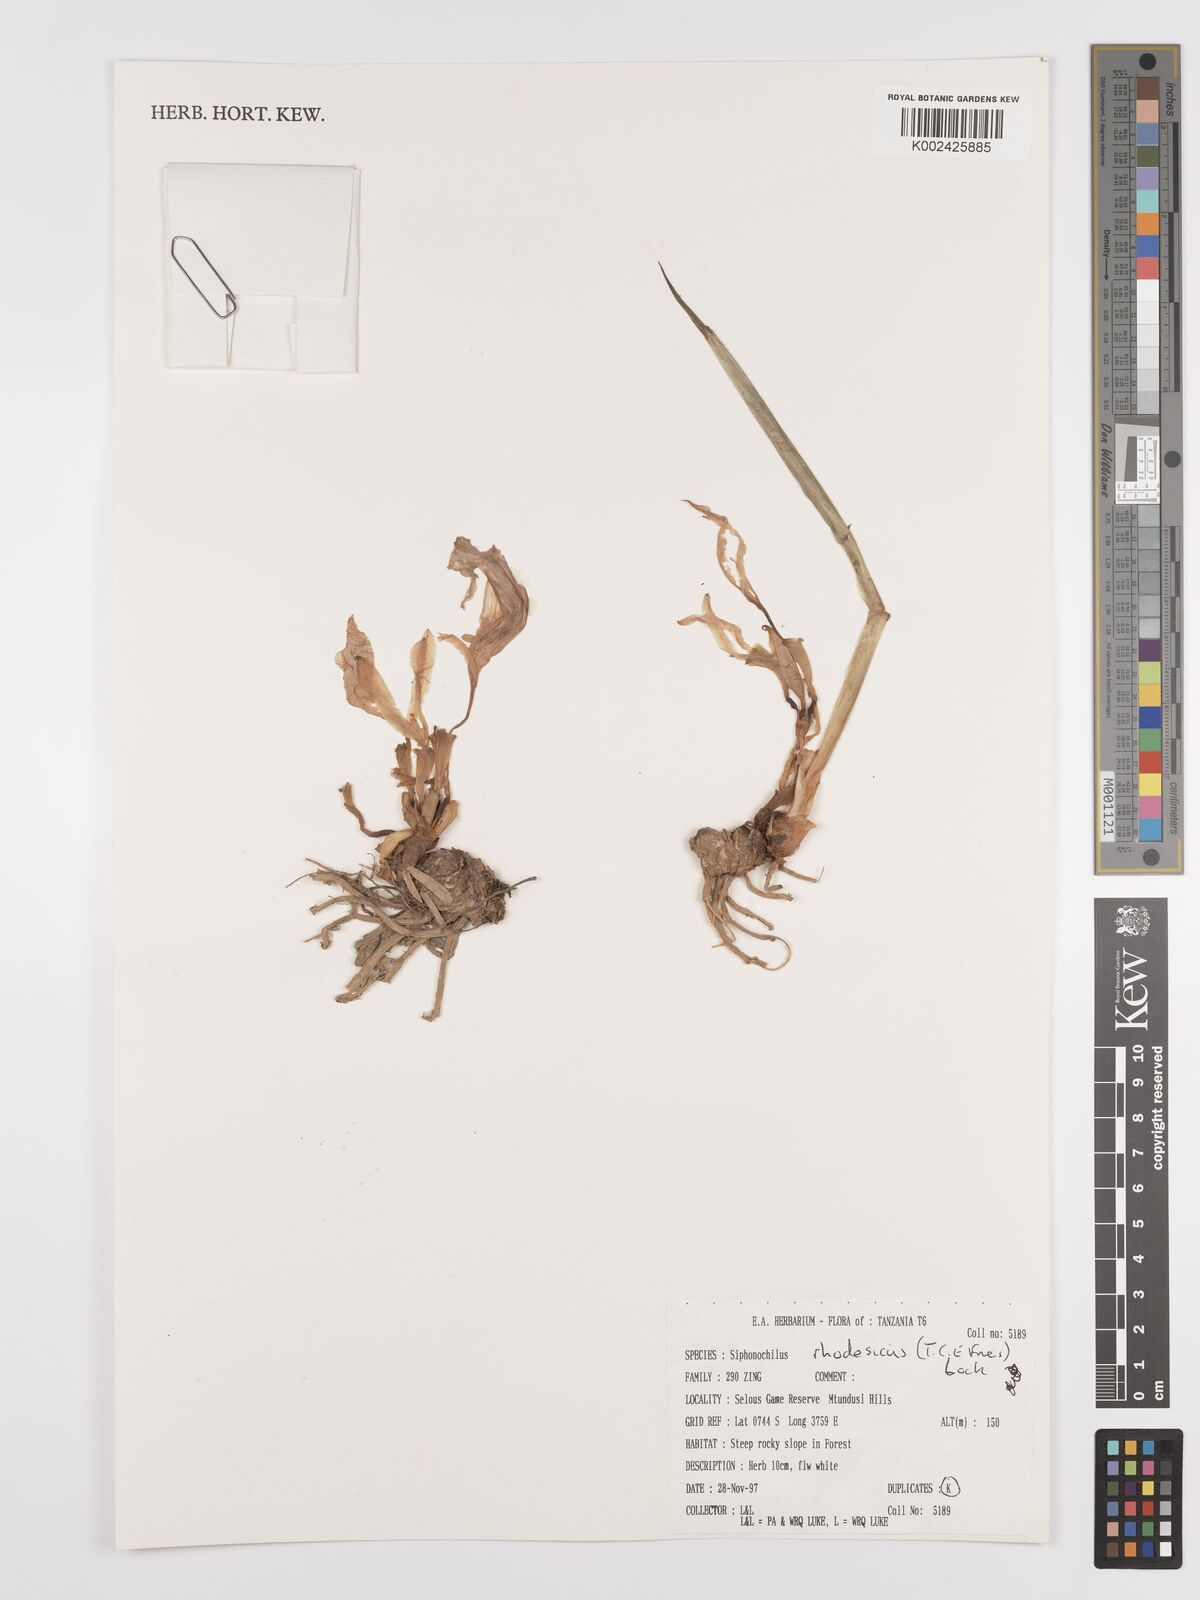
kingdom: Plantae
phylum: Tracheophyta
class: Liliopsida
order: Zingiberales
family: Zingiberaceae
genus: Siphonochilus
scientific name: Siphonochilus rhodesicus
